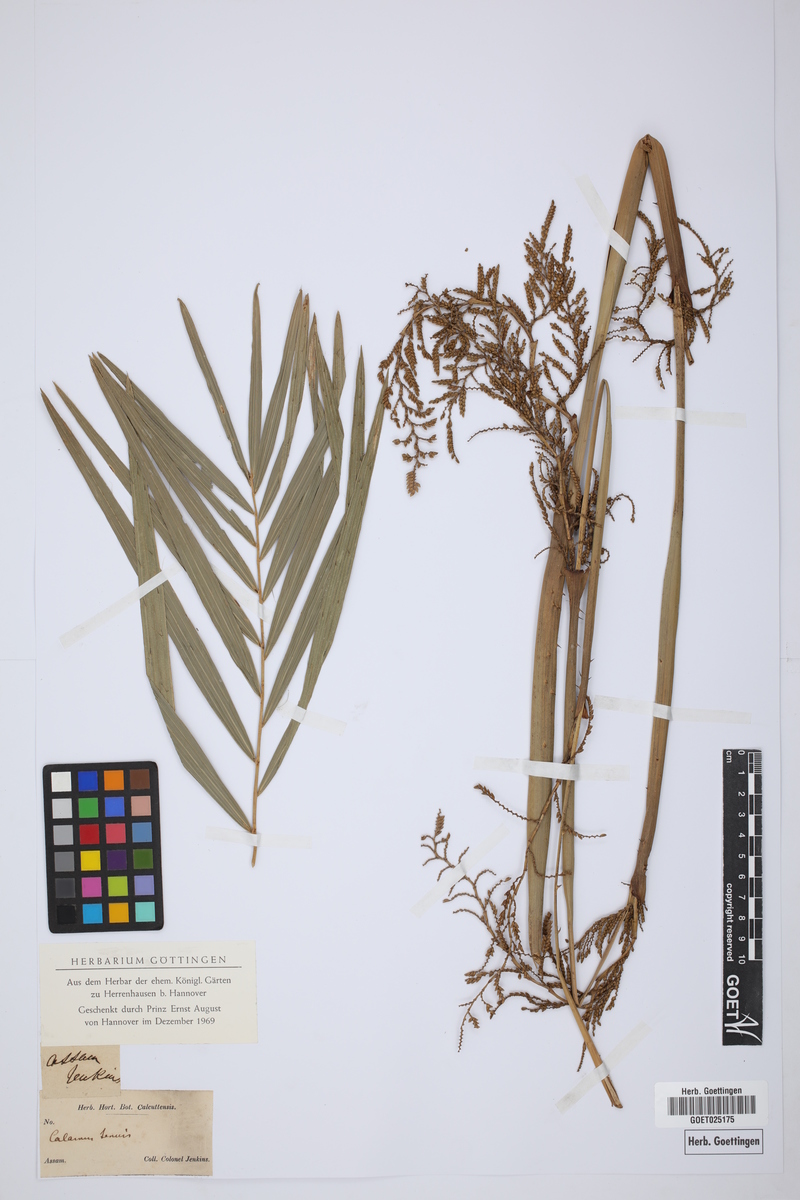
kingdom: Plantae
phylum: Tracheophyta
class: Liliopsida
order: Arecales
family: Arecaceae
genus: Calamus
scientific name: Calamus tenuis
